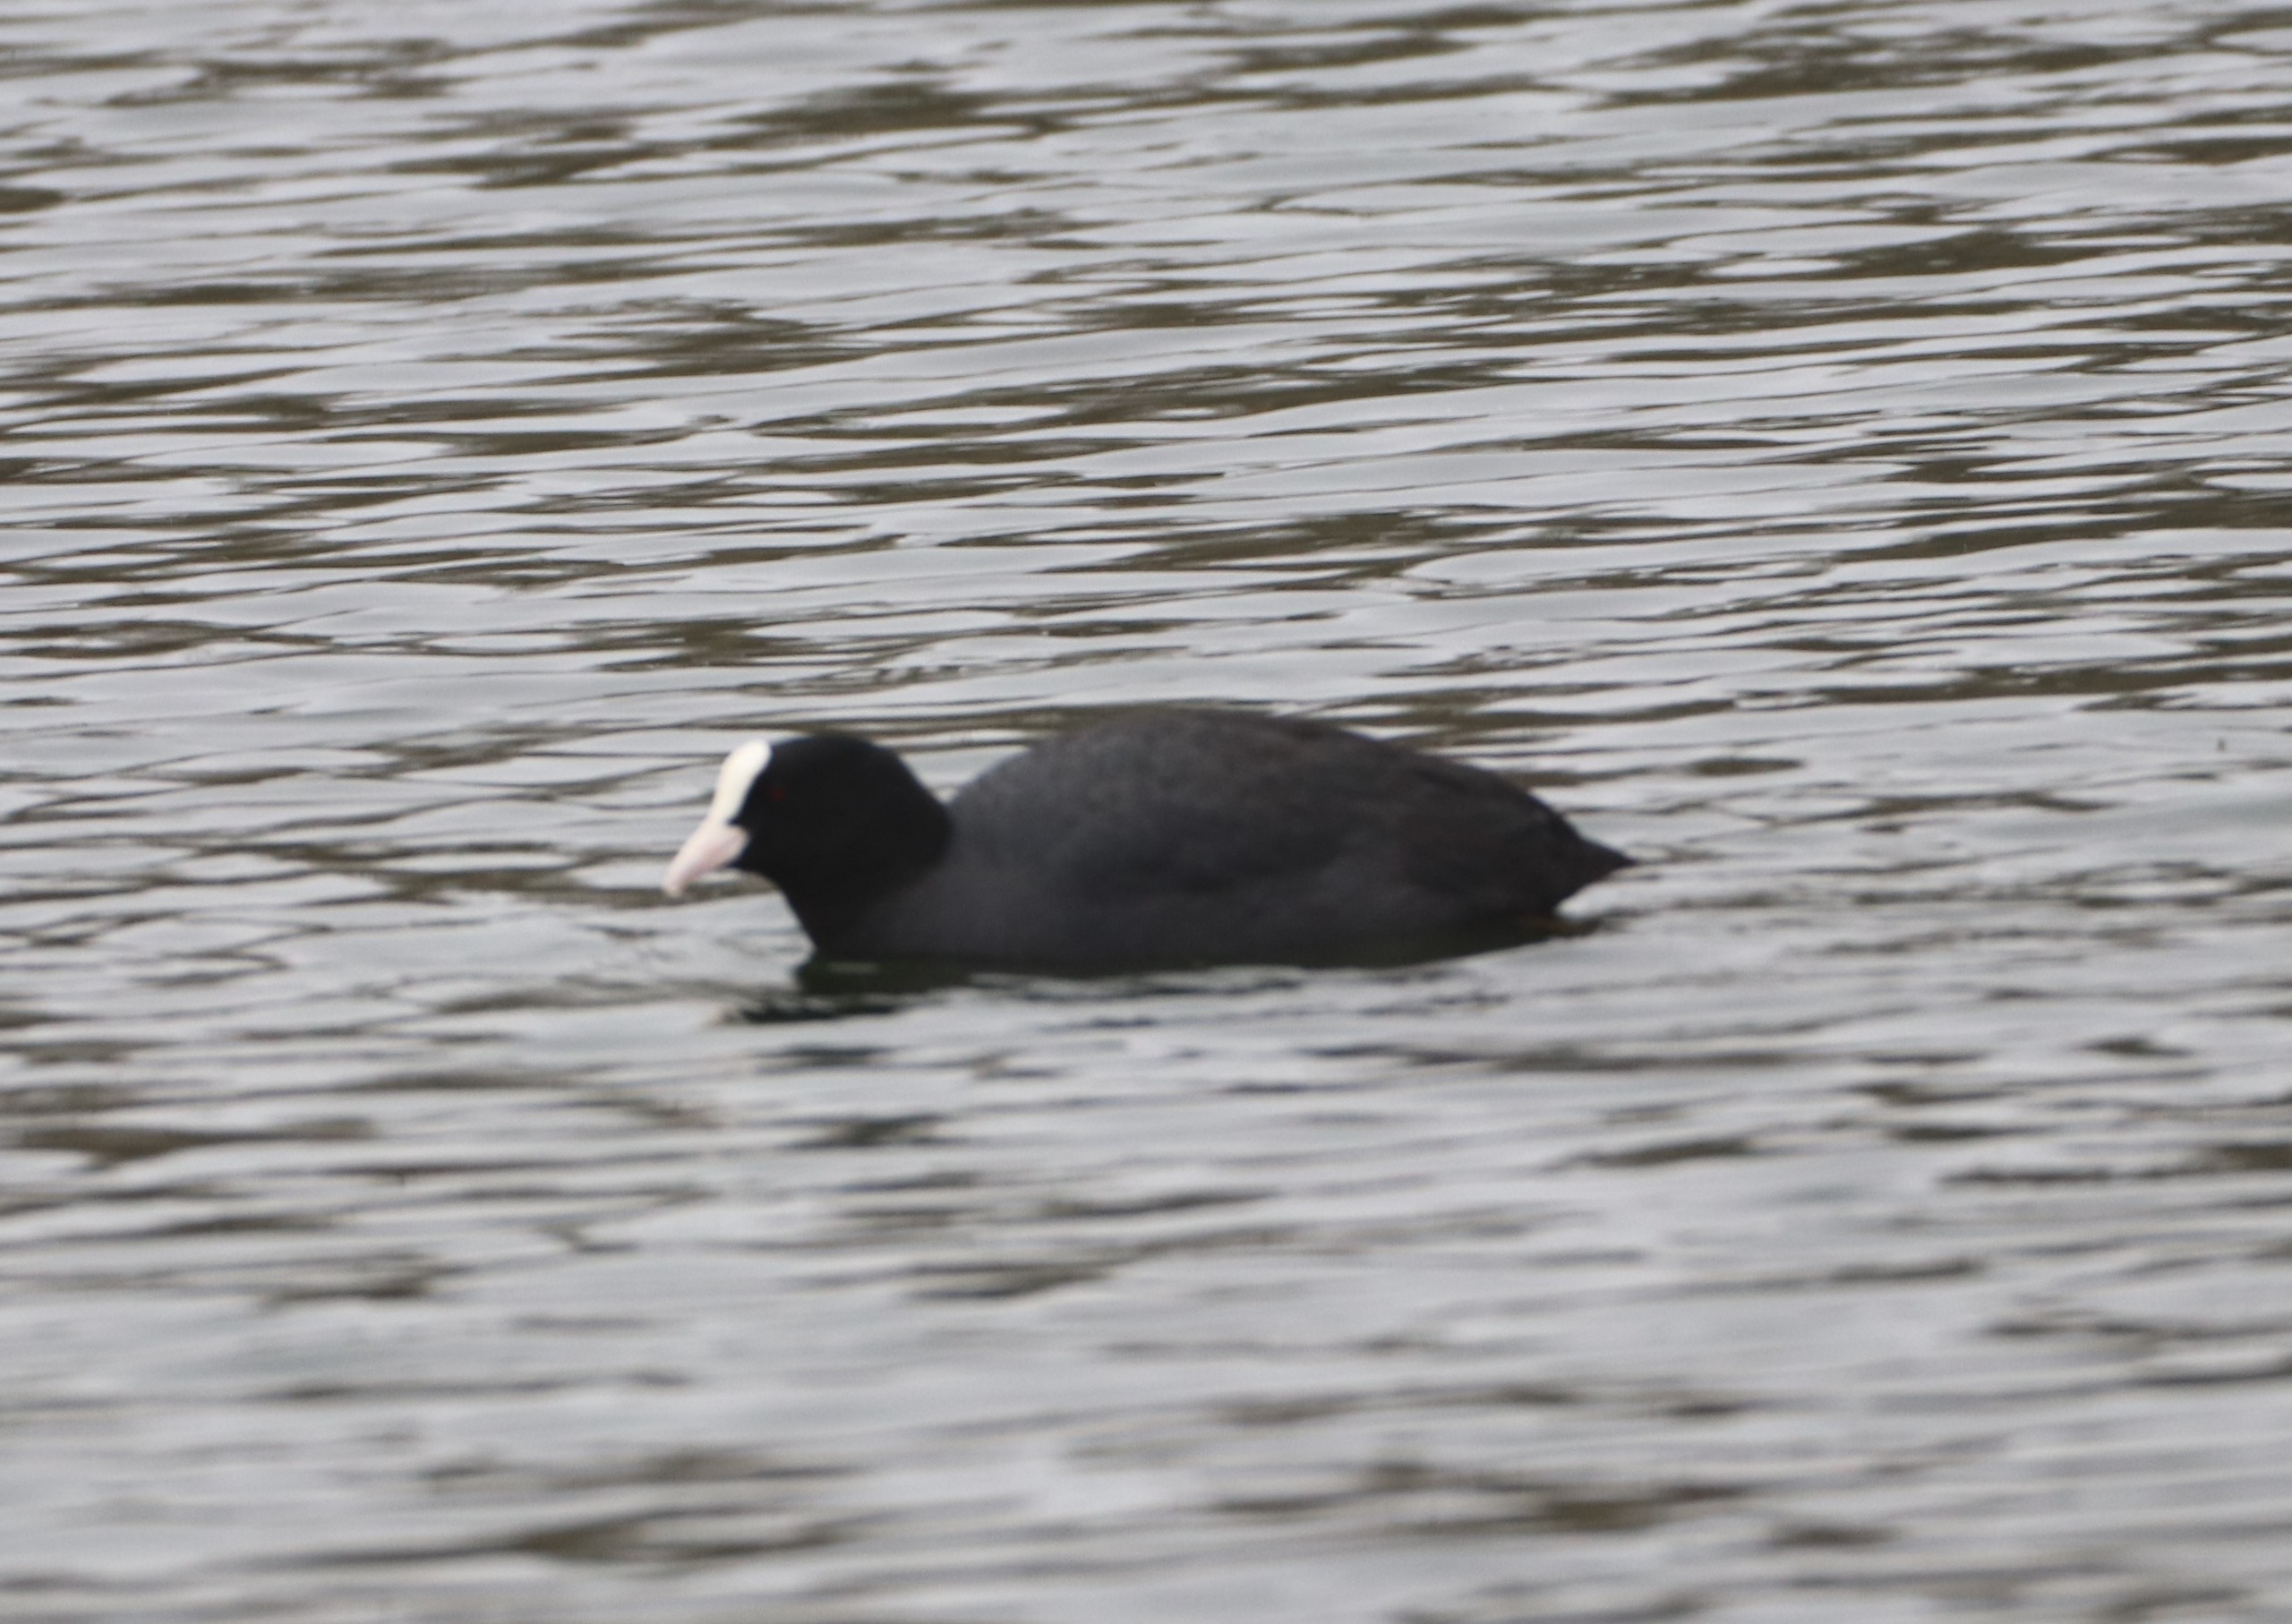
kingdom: Animalia
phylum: Chordata
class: Aves
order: Gruiformes
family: Rallidae
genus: Fulica
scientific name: Fulica atra
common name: Blishøne
